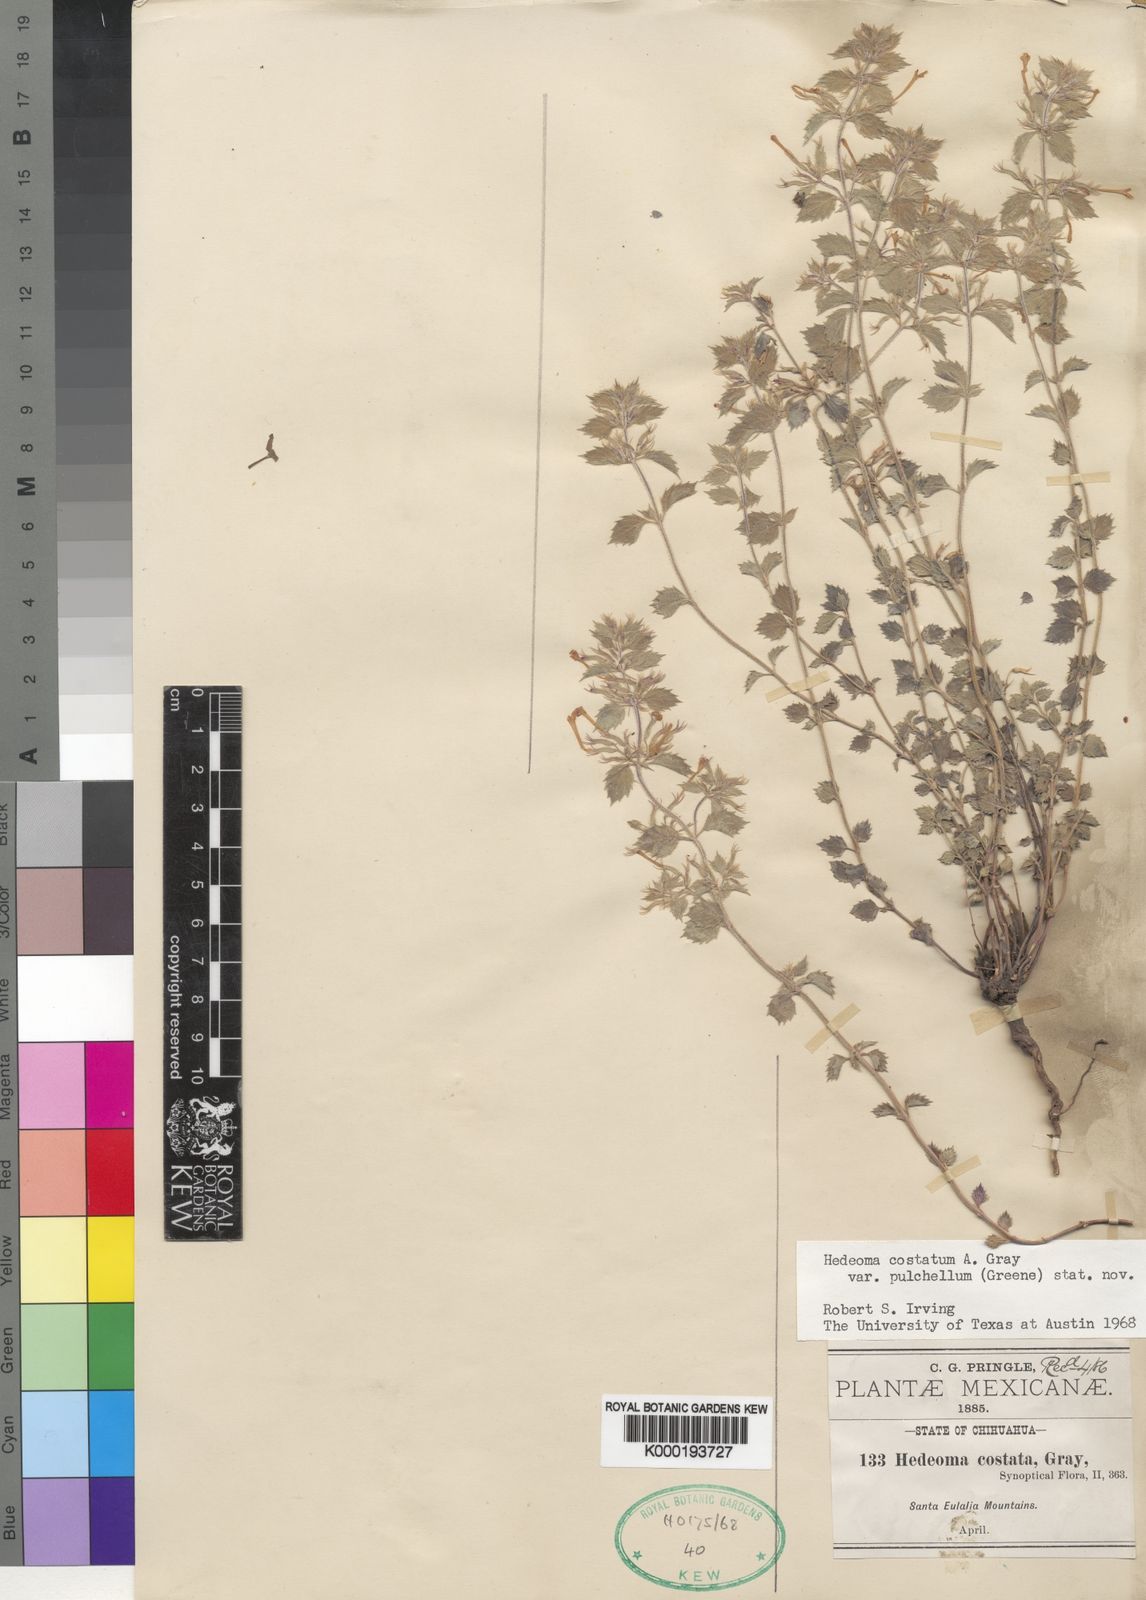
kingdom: Plantae
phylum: Tracheophyta
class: Magnoliopsida
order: Lamiales
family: Lamiaceae
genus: Hedeoma
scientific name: Hedeoma costata
